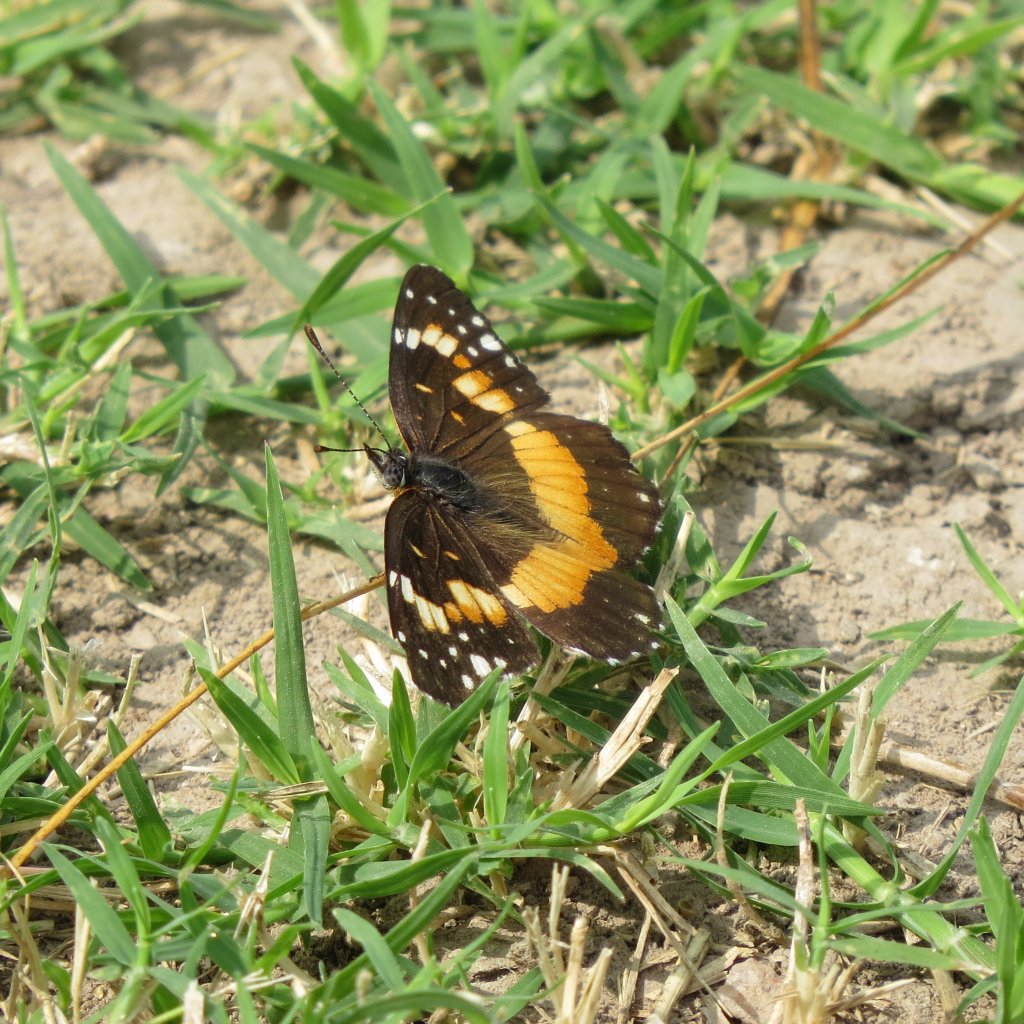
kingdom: Animalia
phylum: Arthropoda
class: Insecta
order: Lepidoptera
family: Nymphalidae
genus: Chlosyne
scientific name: Chlosyne lacinia
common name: Bordered Patch
